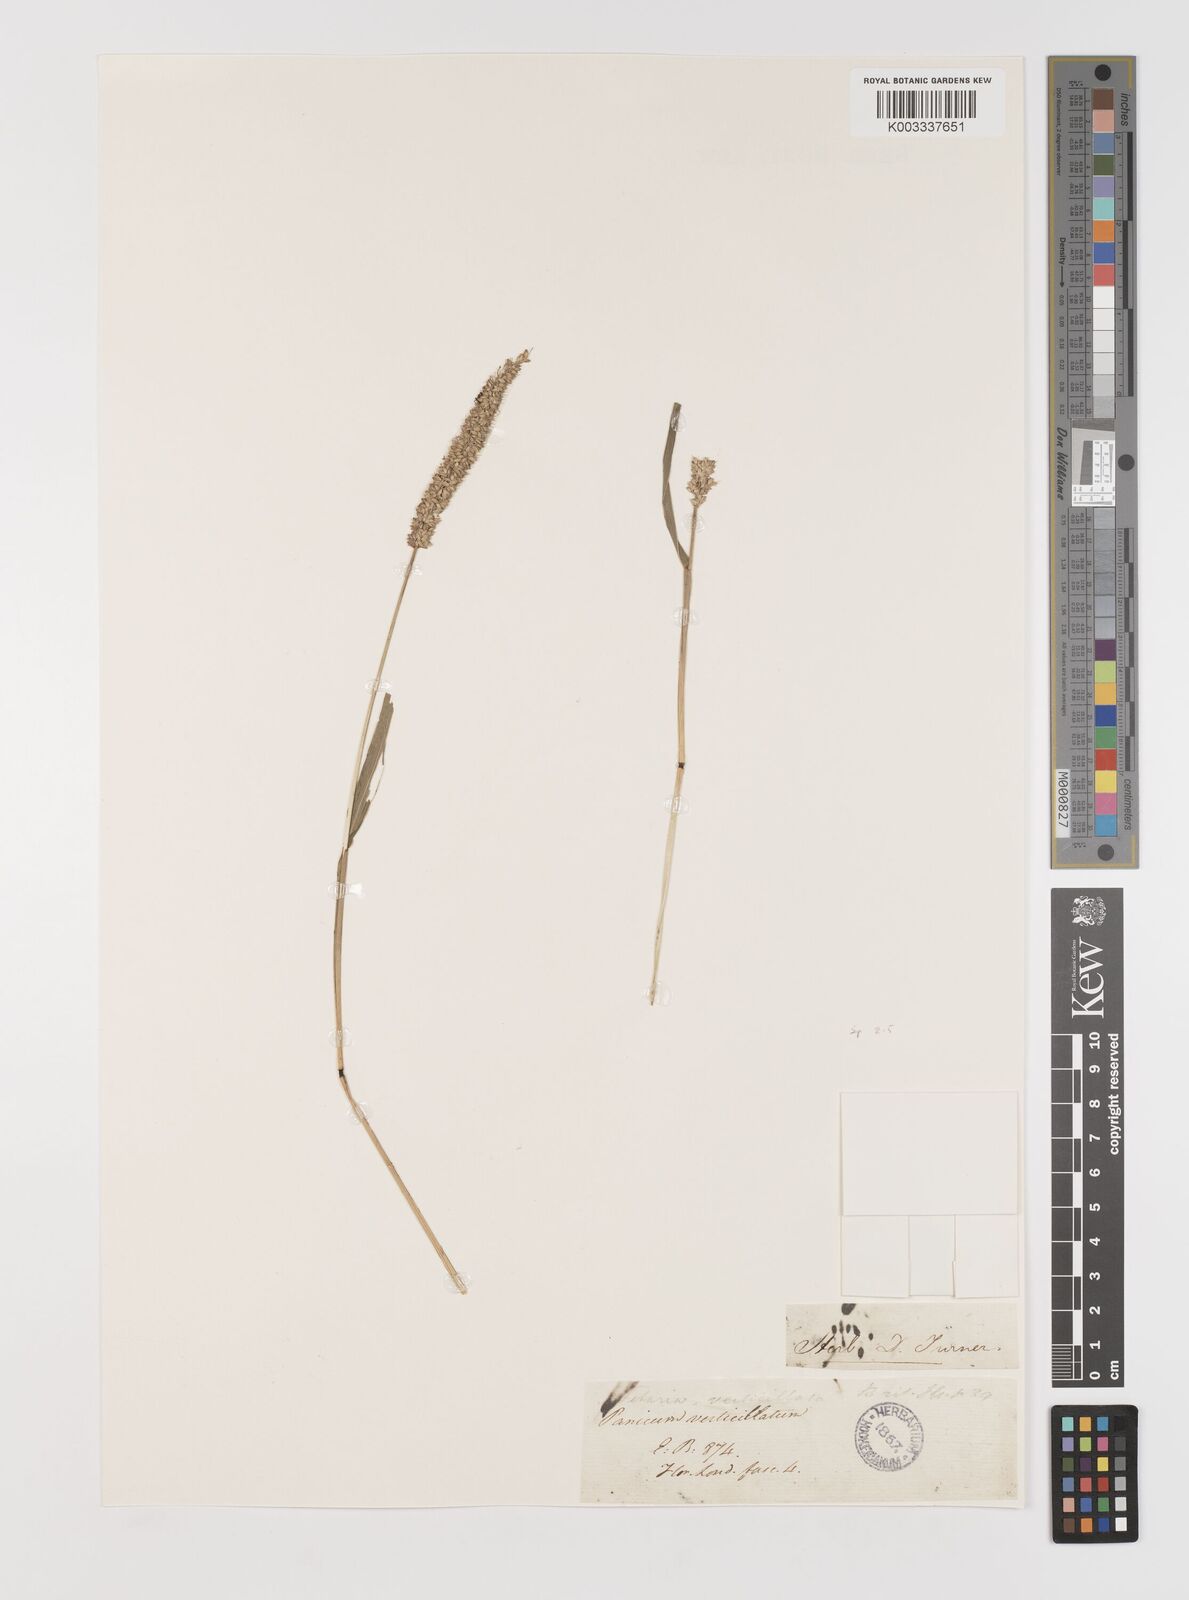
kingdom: Plantae
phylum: Tracheophyta
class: Liliopsida
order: Poales
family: Poaceae
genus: Setaria
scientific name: Setaria verticillata
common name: Hooked bristlegrass
